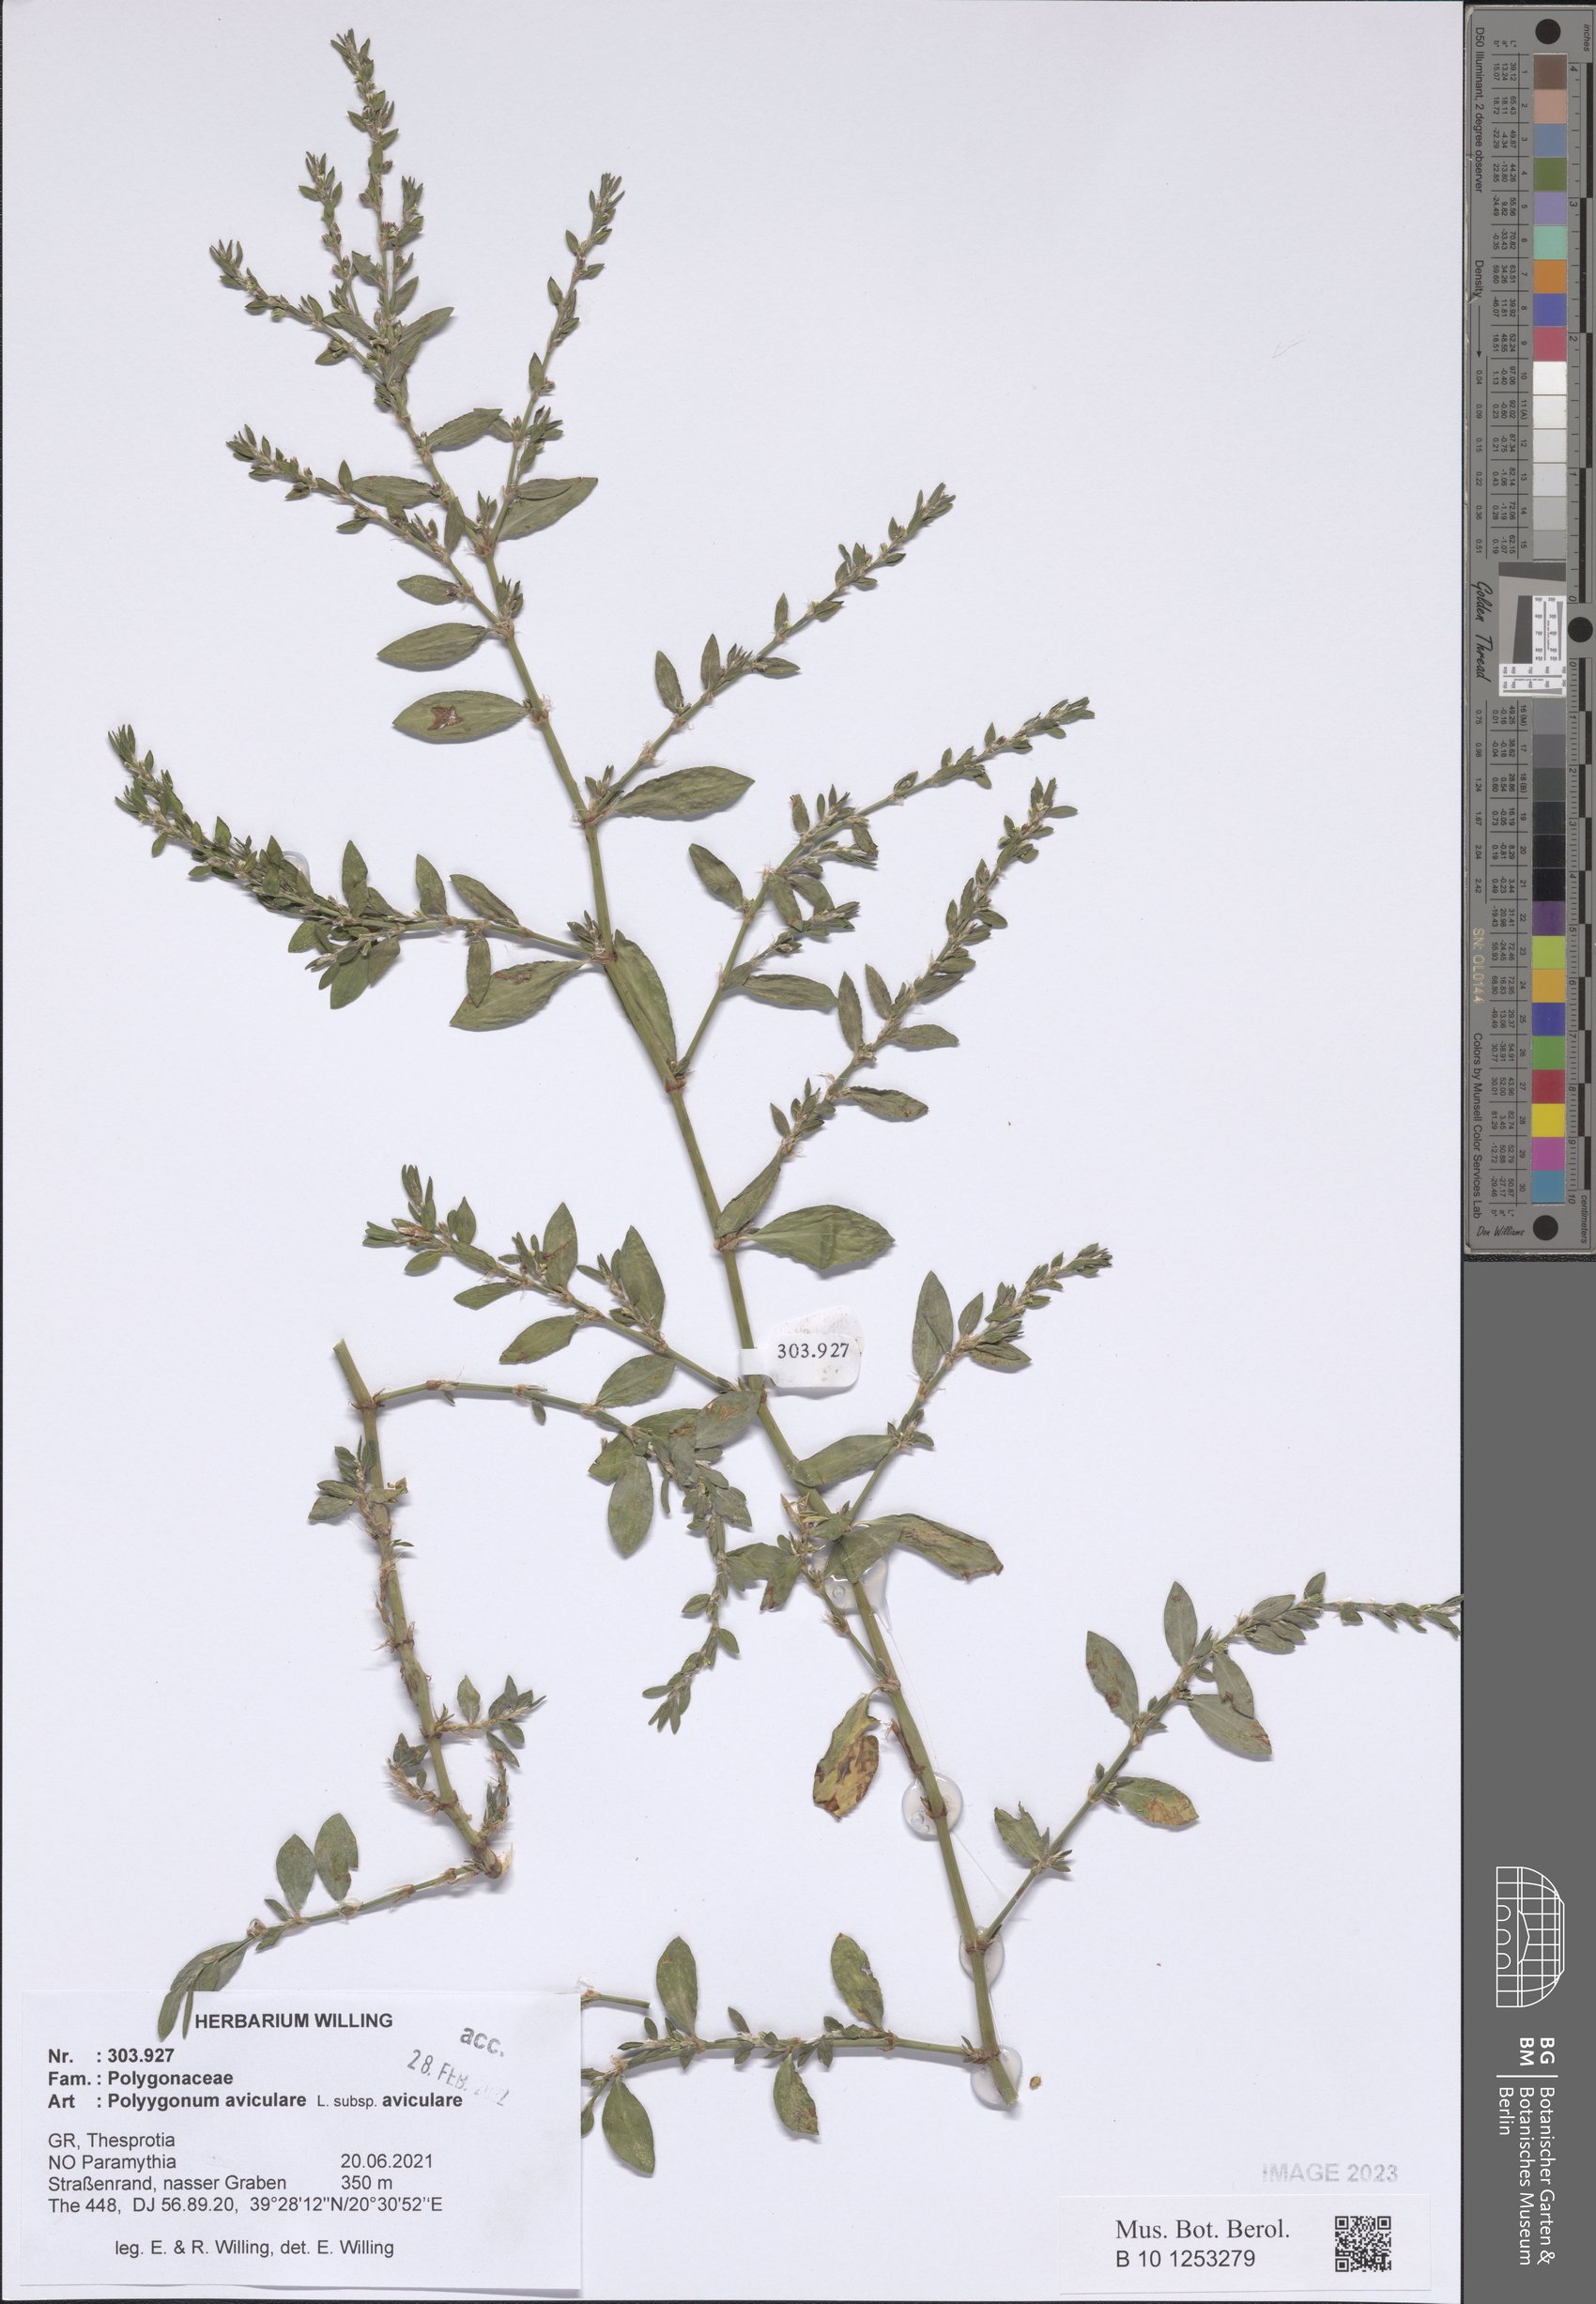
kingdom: Plantae
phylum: Tracheophyta
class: Magnoliopsida
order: Caryophyllales
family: Polygonaceae
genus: Polygonum
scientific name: Polygonum aviculare
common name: Prostrate knotweed
